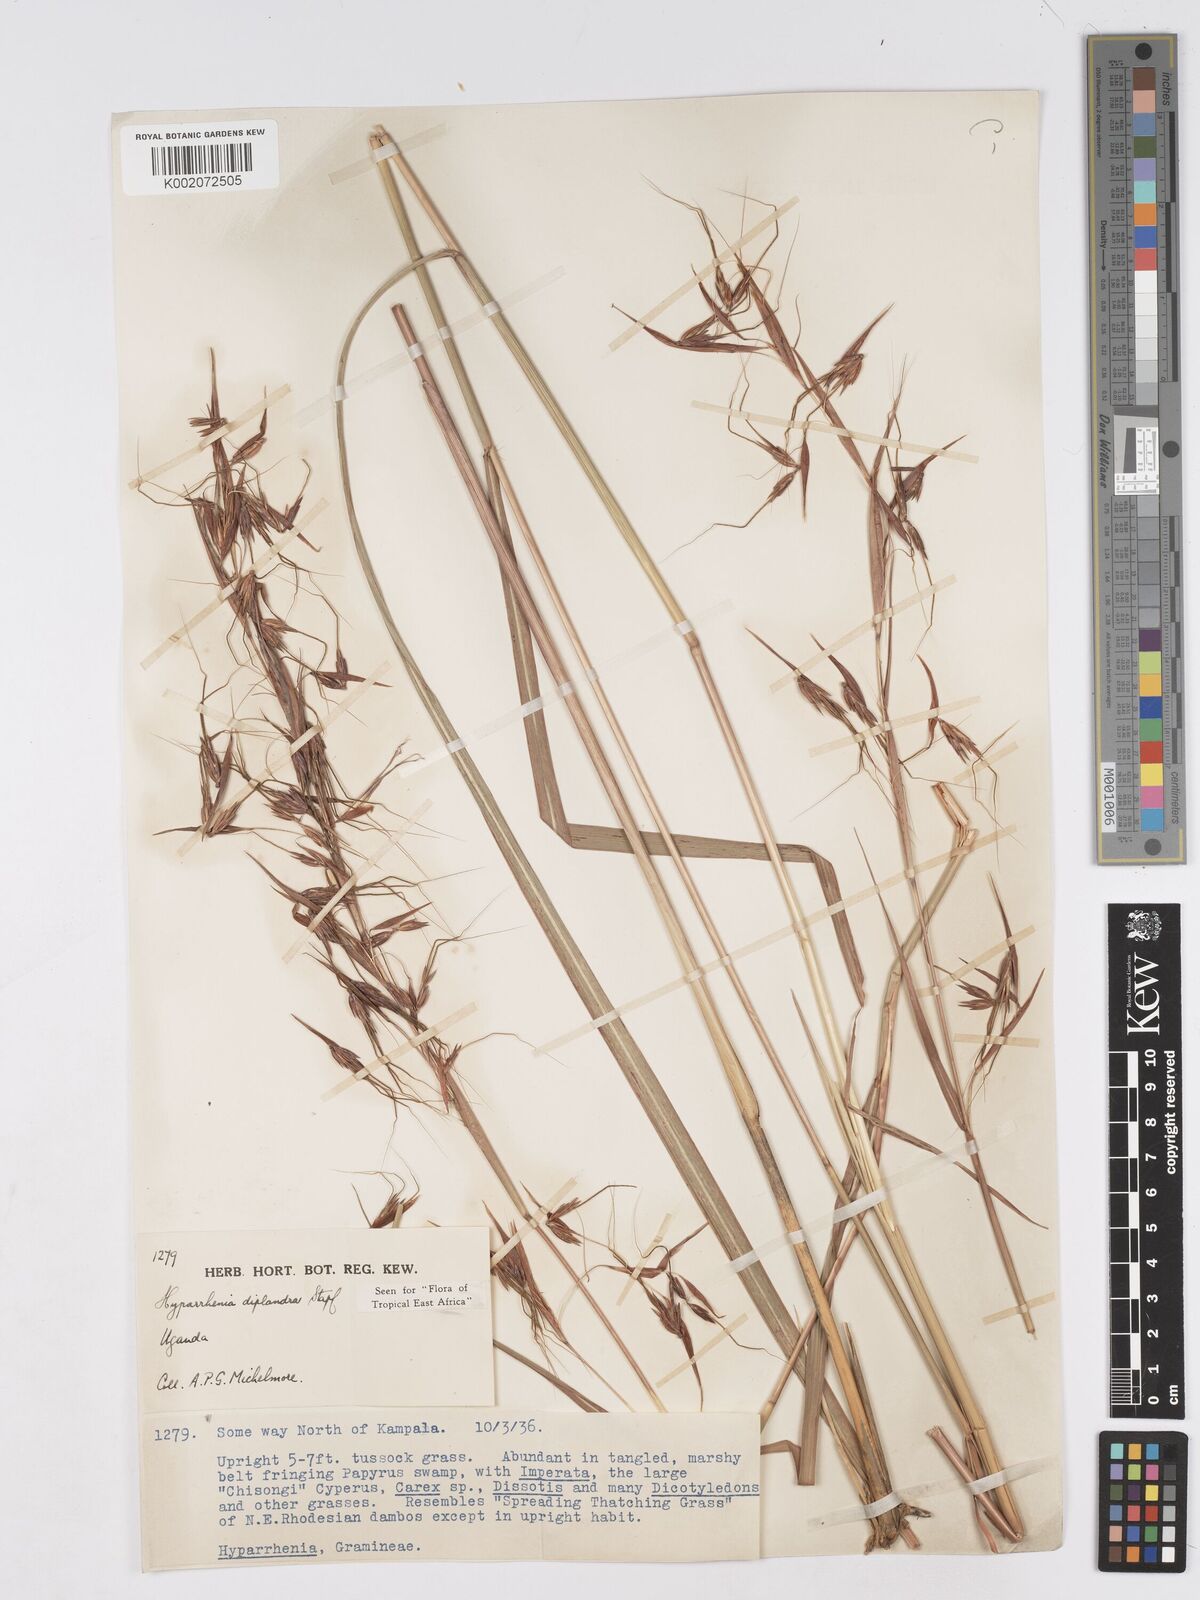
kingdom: Plantae
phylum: Tracheophyta
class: Liliopsida
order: Poales
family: Poaceae
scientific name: Poaceae
